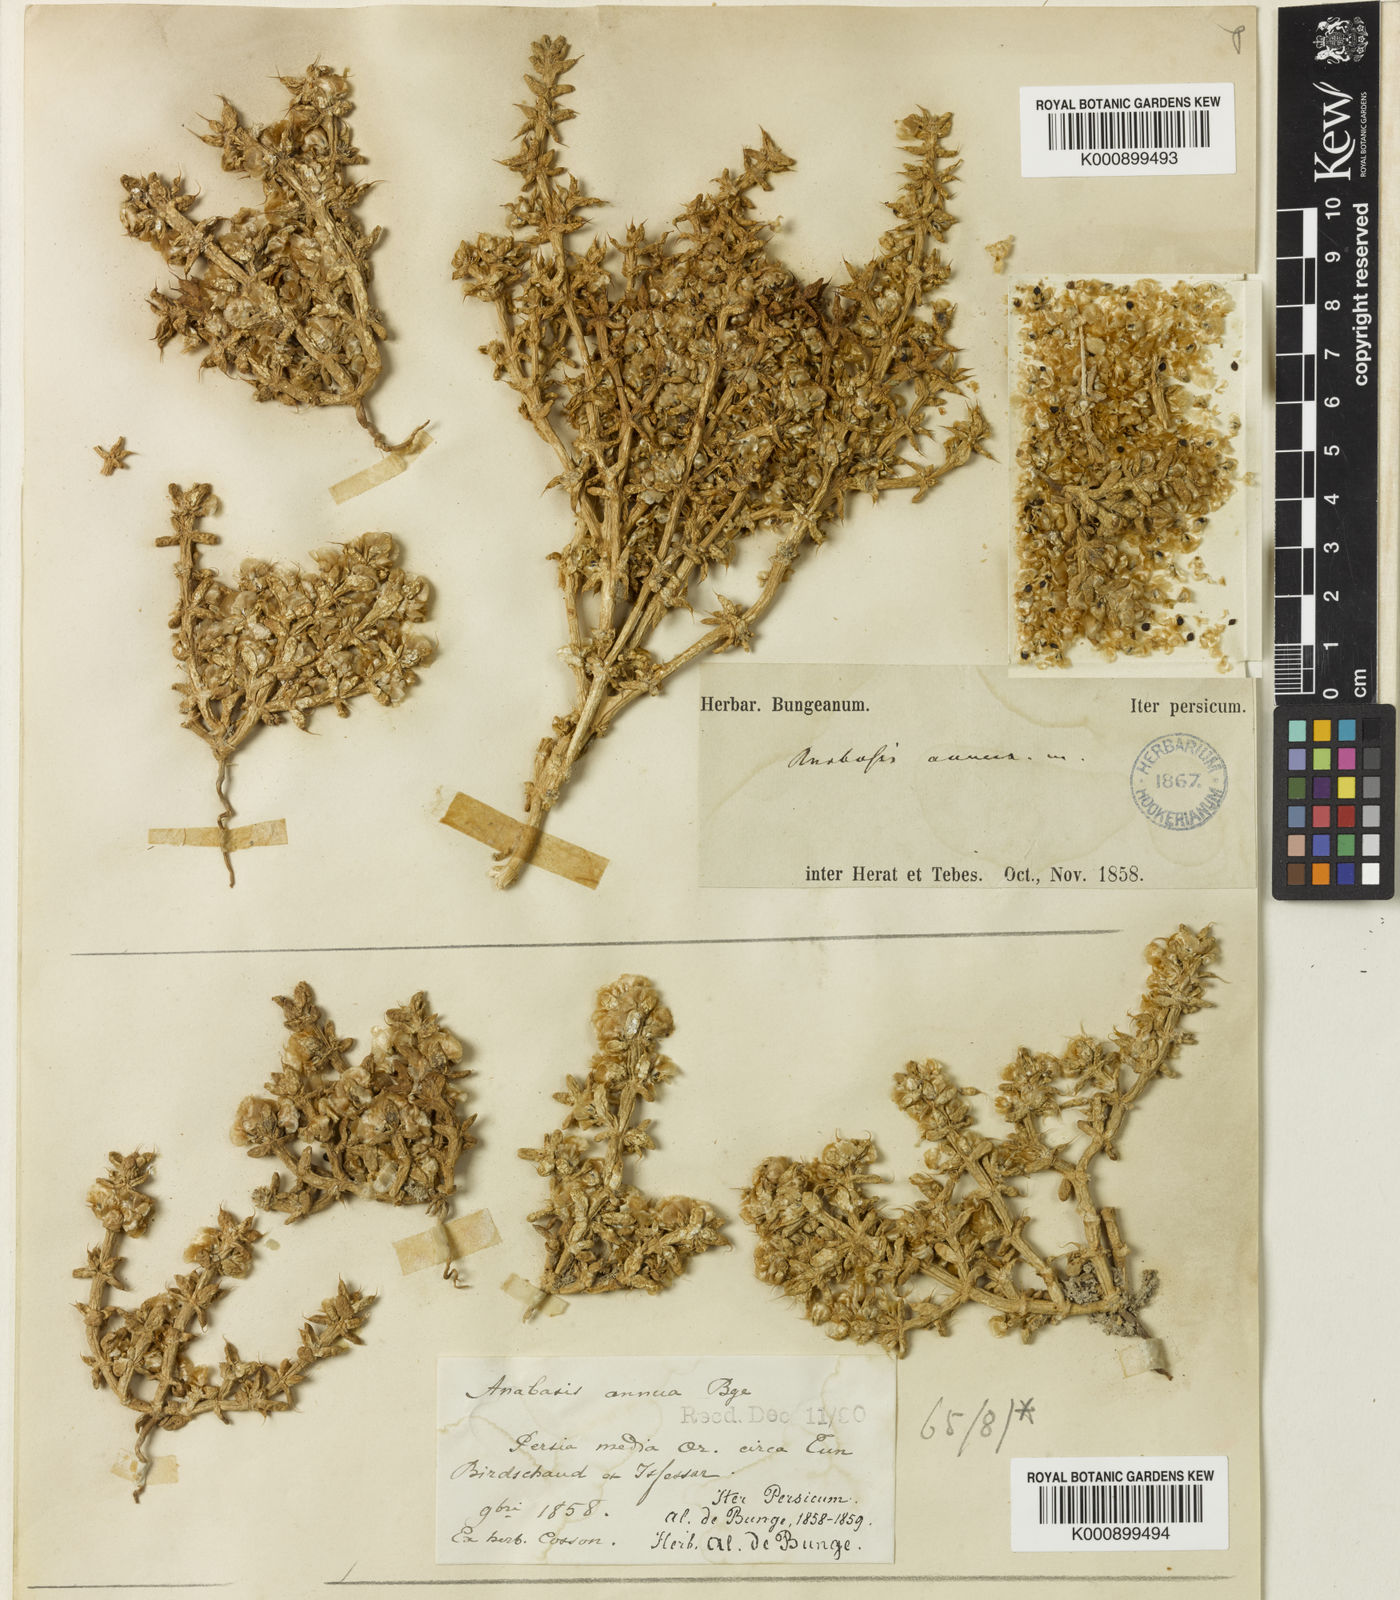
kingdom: Plantae
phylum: Tracheophyta
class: Magnoliopsida
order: Caryophyllales
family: Amaranthaceae
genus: Anabasis
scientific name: Anabasis annua
